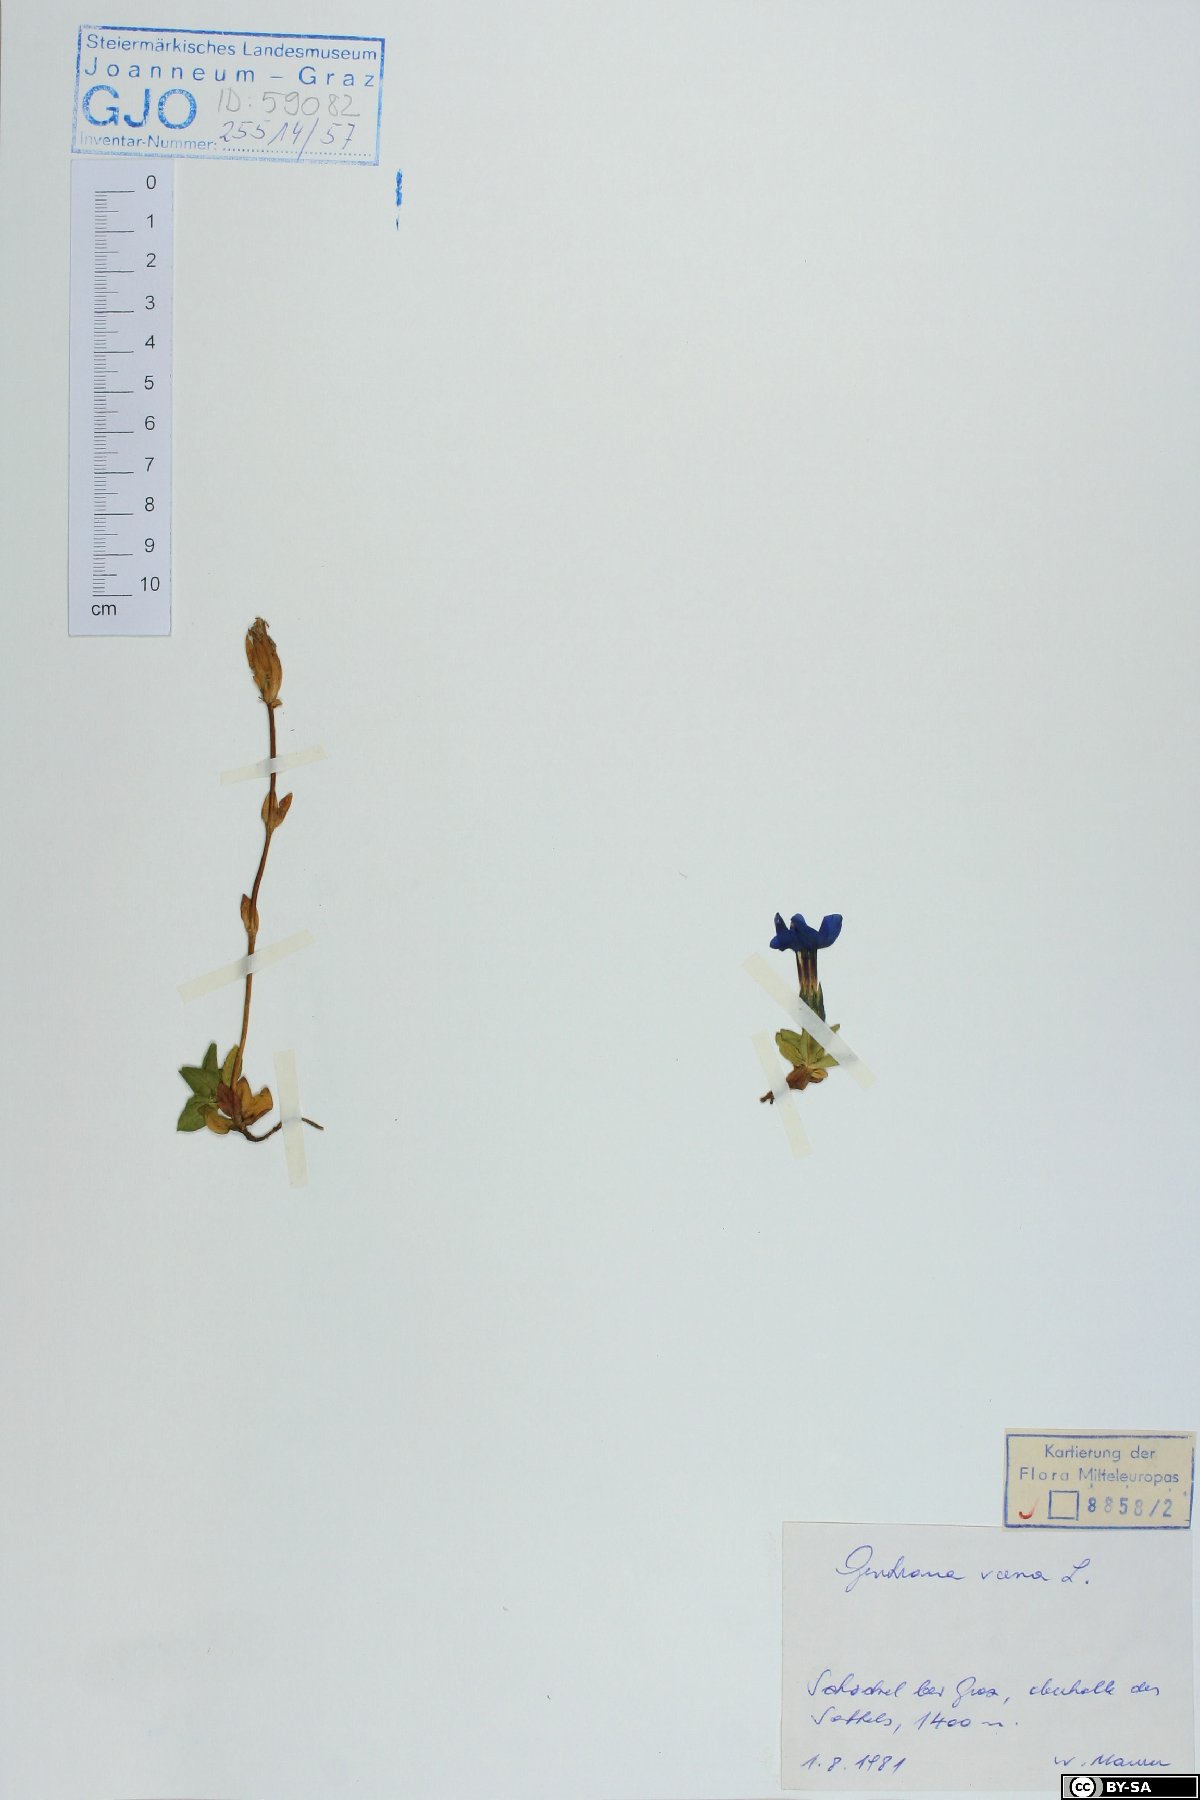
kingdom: Plantae
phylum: Tracheophyta
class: Magnoliopsida
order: Gentianales
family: Gentianaceae
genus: Gentiana
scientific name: Gentiana verna
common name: Spring gentian
